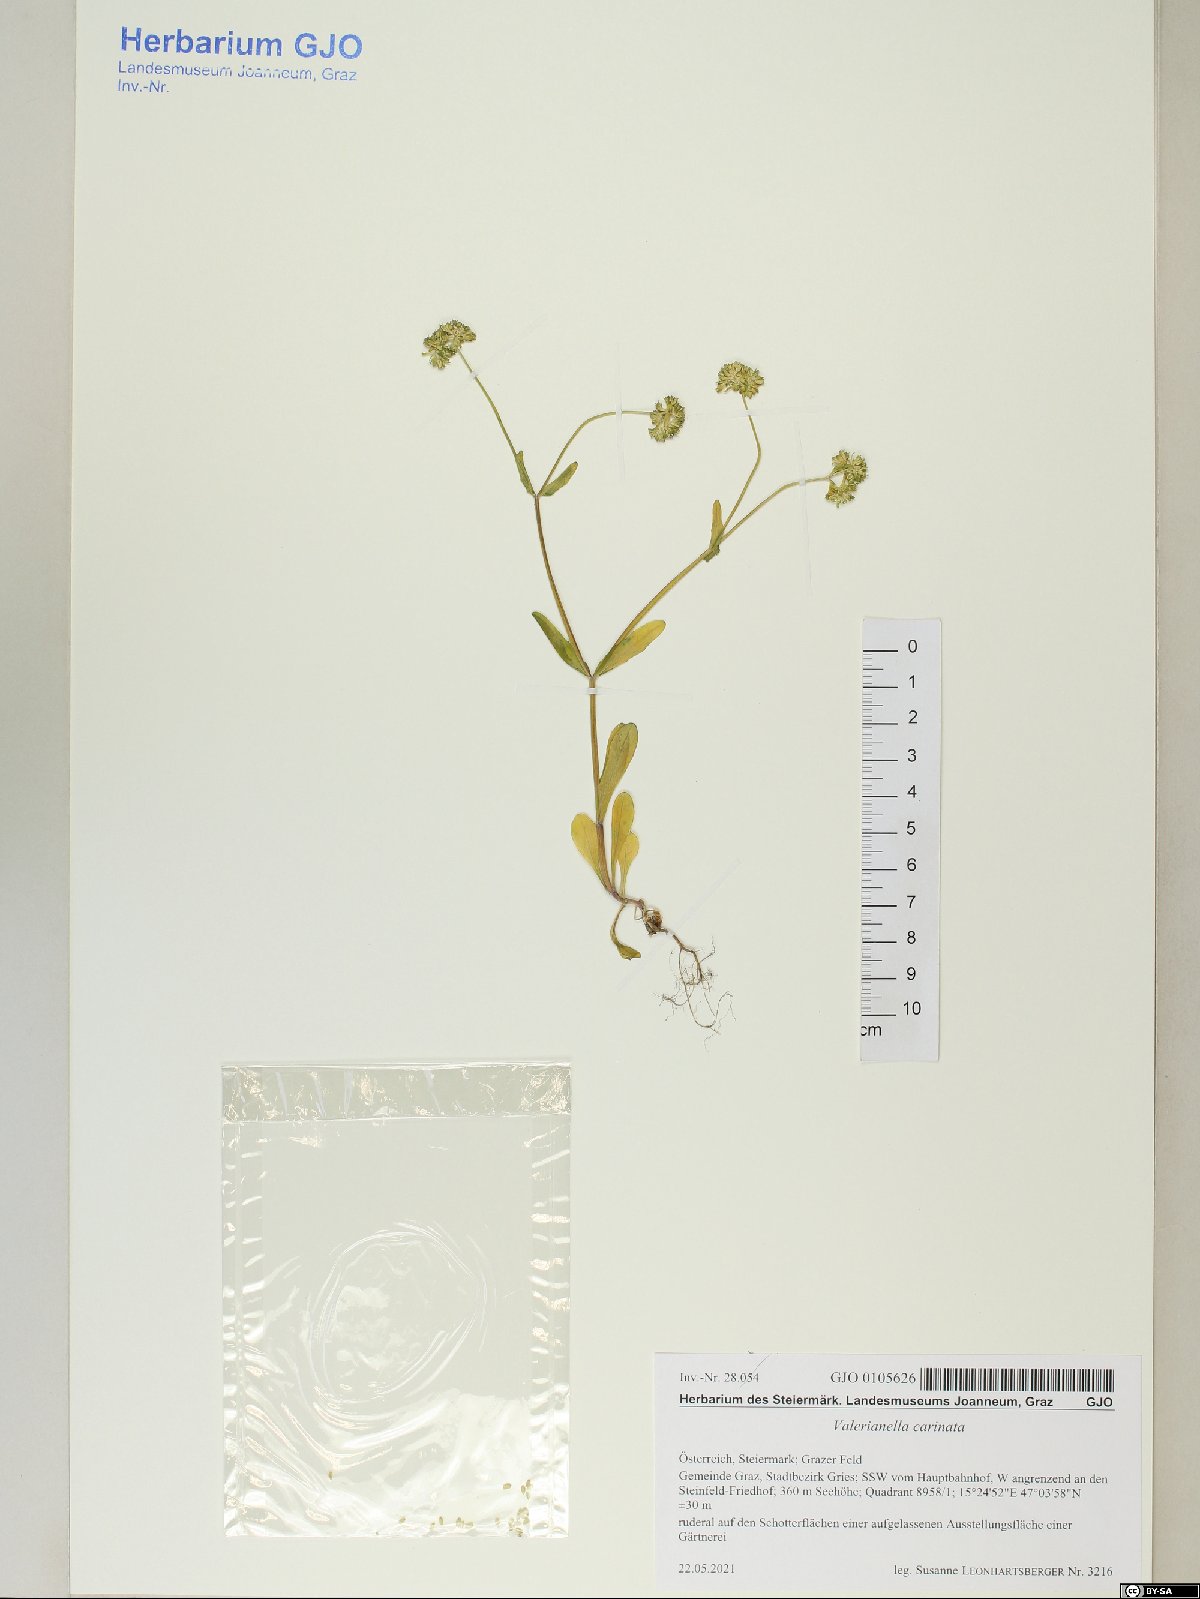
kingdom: Plantae
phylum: Tracheophyta
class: Magnoliopsida
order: Dipsacales
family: Caprifoliaceae
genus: Valerianella
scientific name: Valerianella carinata
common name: Keeled-fruited cornsalad
